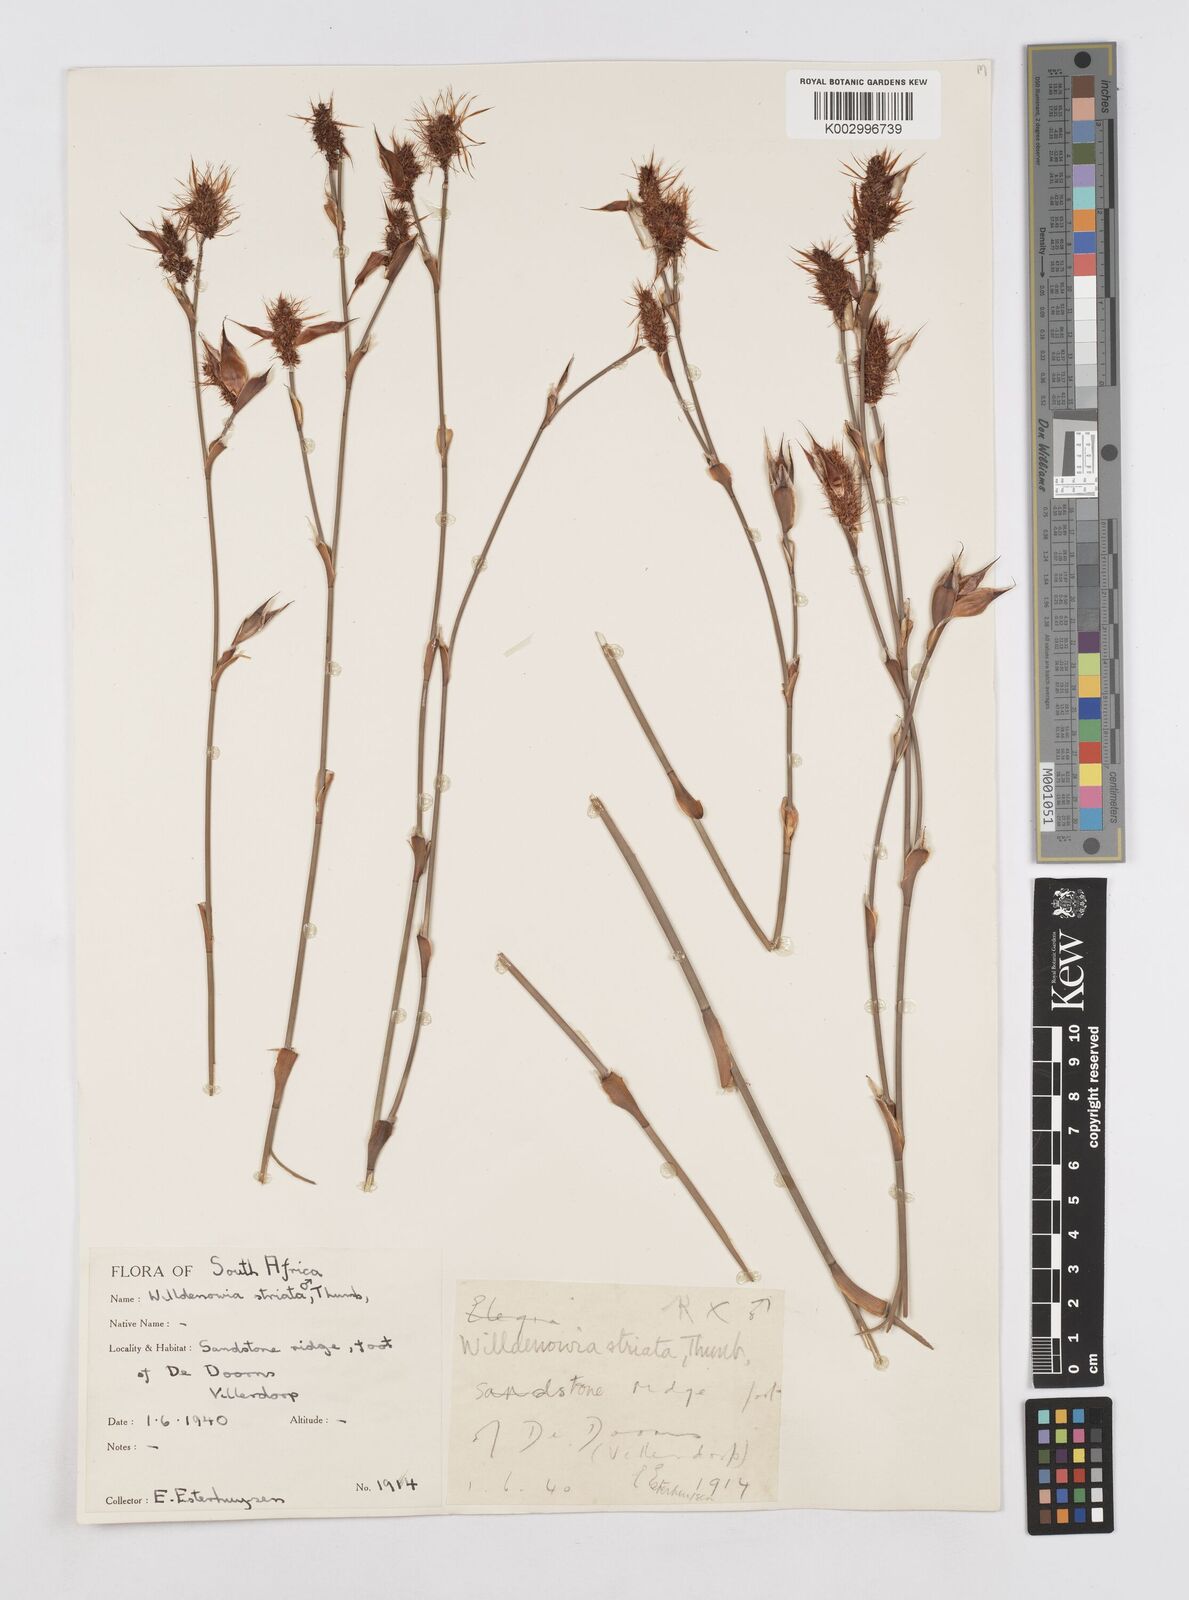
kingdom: Plantae
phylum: Tracheophyta
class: Liliopsida
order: Poales
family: Restionaceae
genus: Willdenowia
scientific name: Willdenowia incurvata
